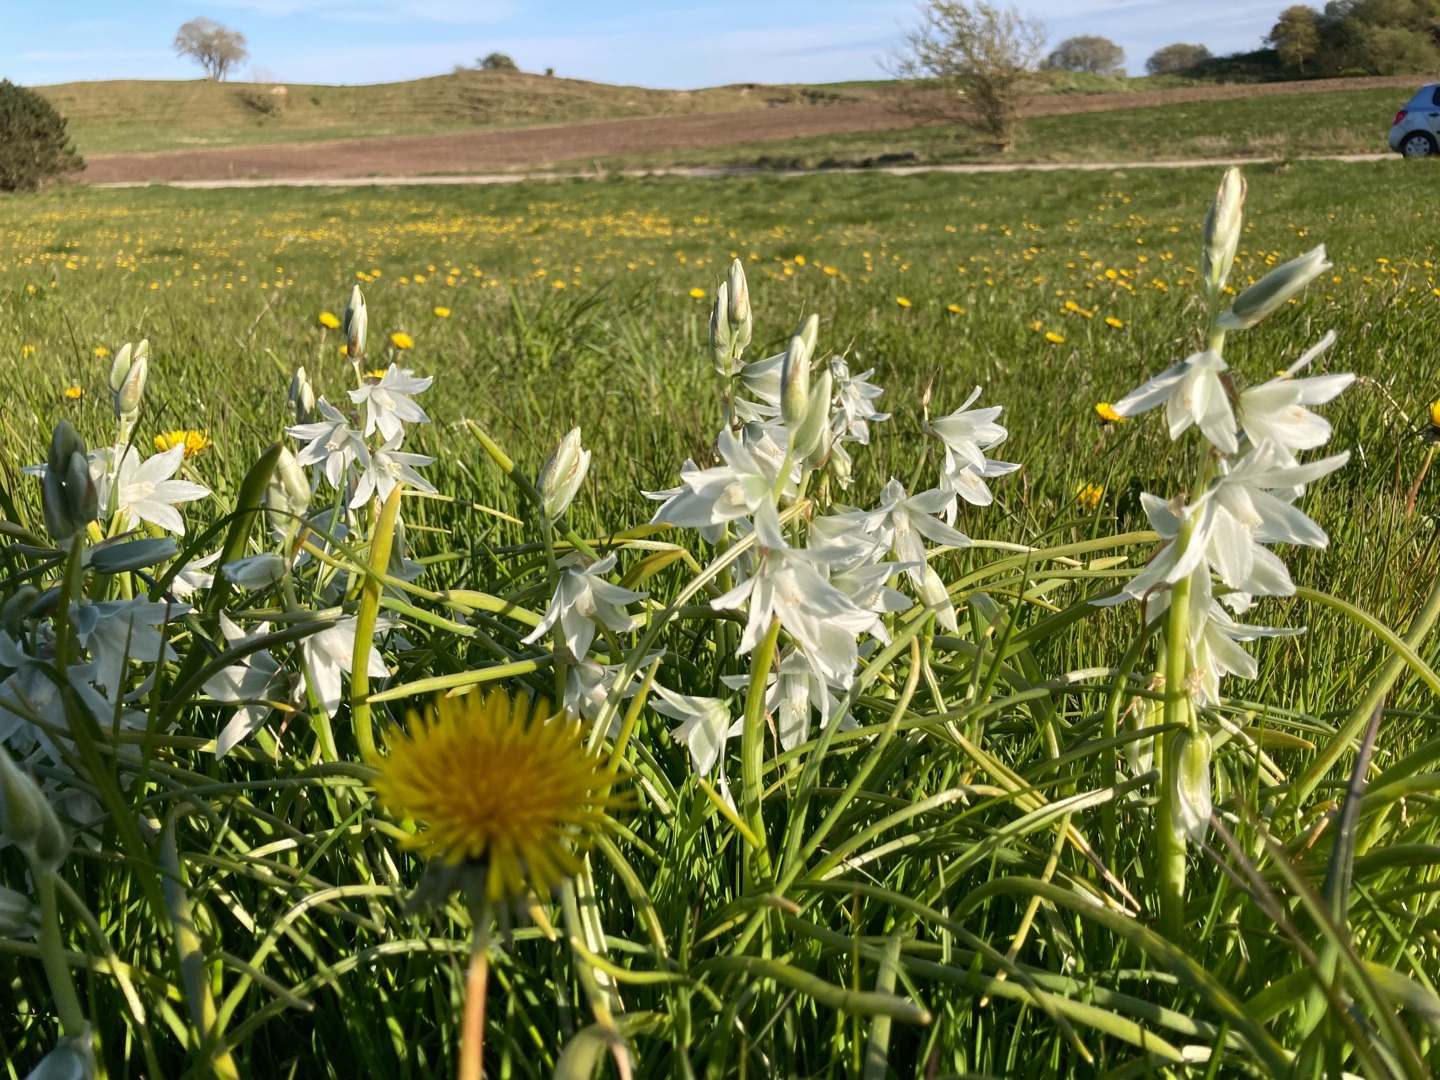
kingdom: Plantae
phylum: Tracheophyta
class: Liliopsida
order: Asparagales
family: Asparagaceae
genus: Ornithogalum
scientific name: Ornithogalum nutans
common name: Nikkende fuglemælk
